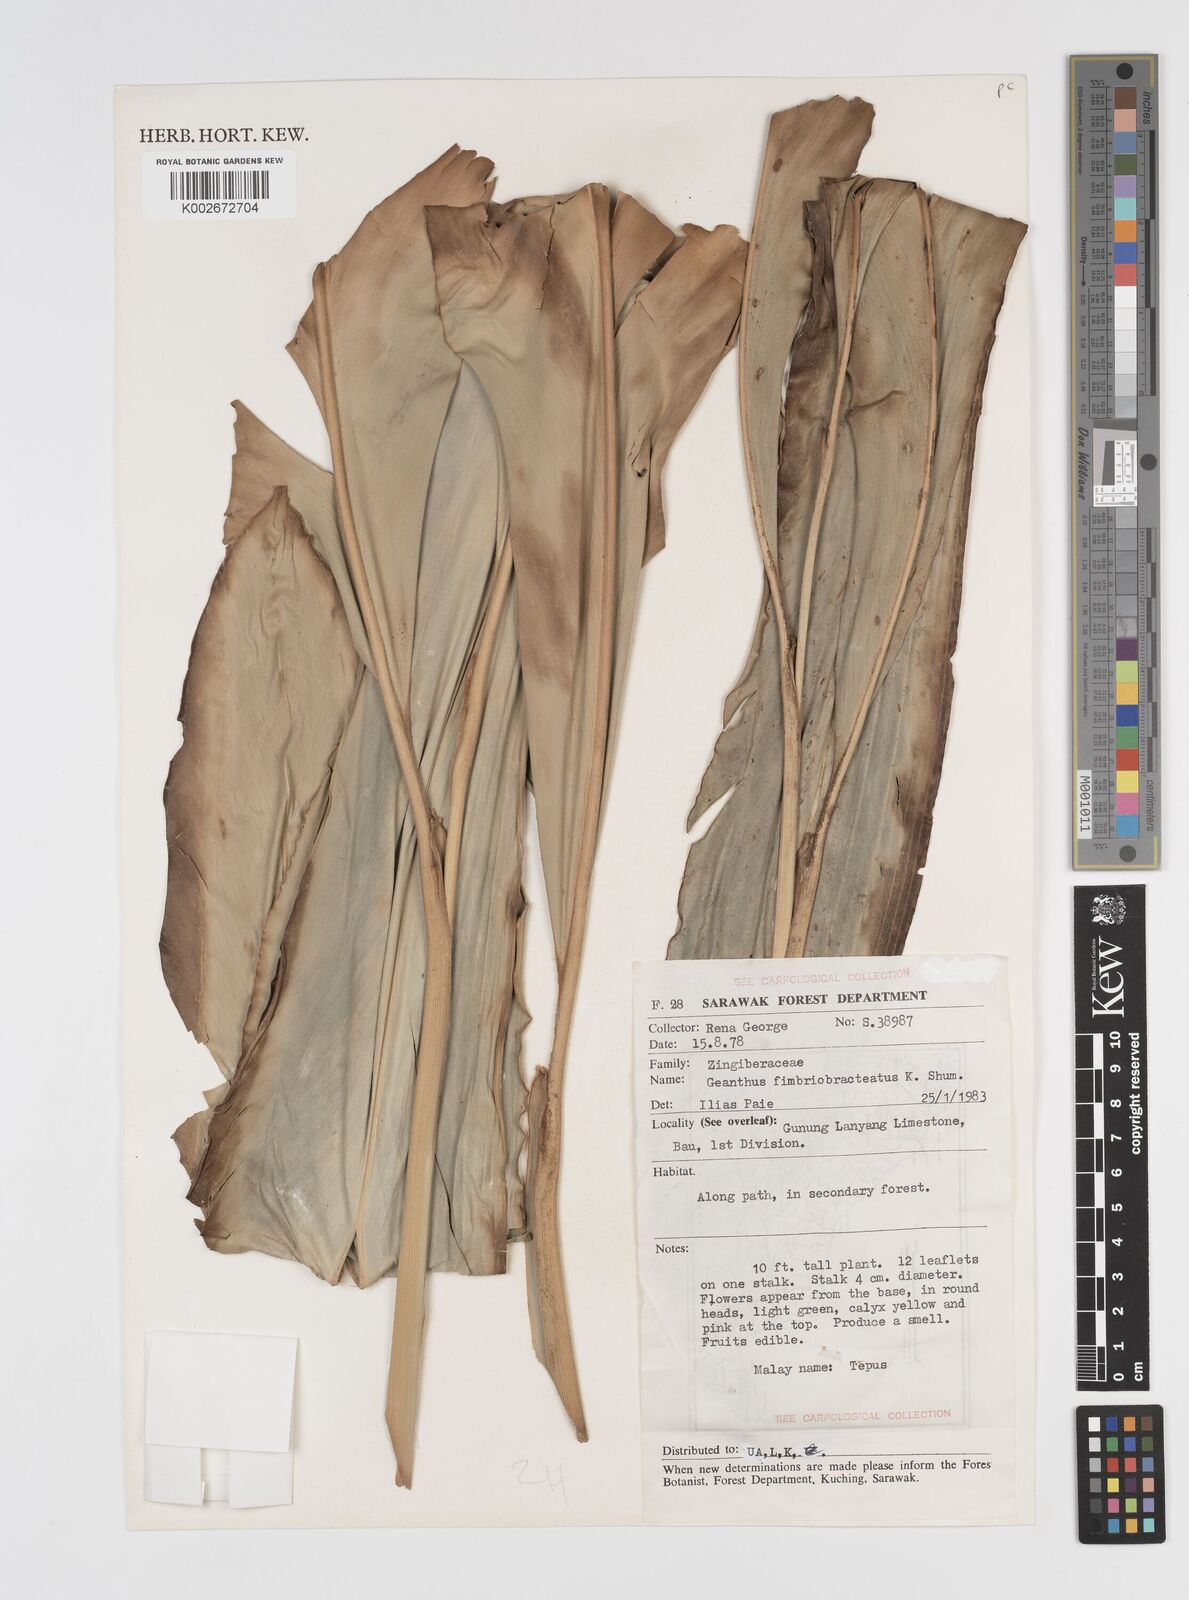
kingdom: Plantae
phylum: Tracheophyta
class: Liliopsida
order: Zingiberales
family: Zingiberaceae
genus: Etlingera
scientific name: Etlingera pubescens
